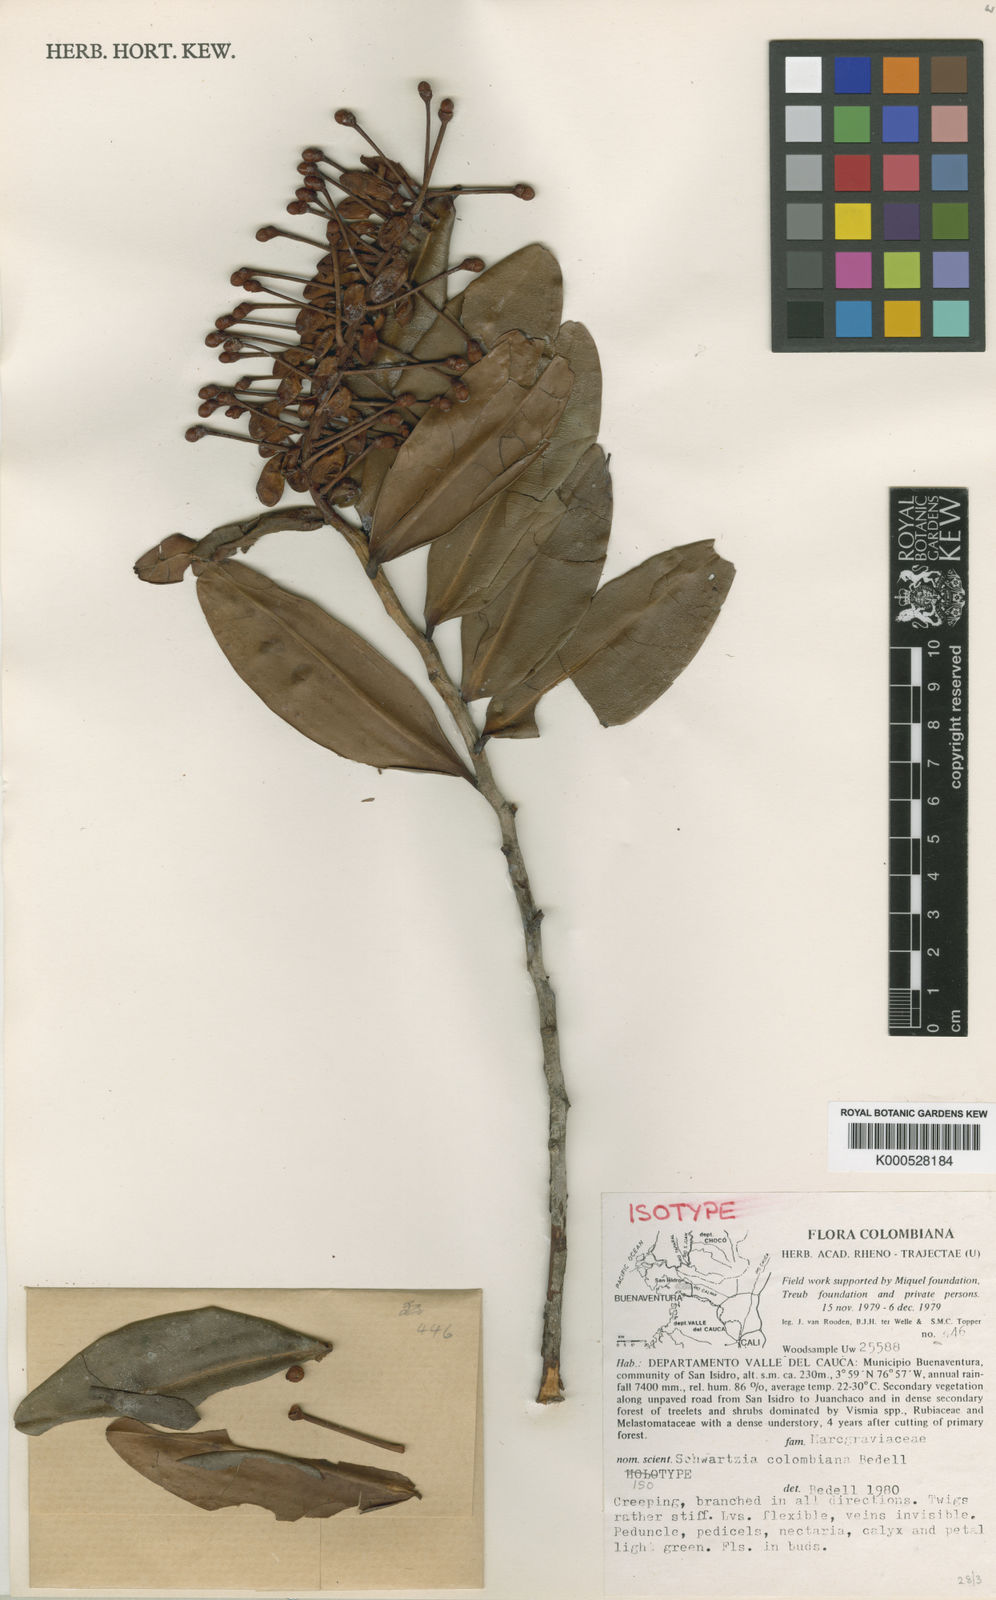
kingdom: Plantae
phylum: Tracheophyta
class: Magnoliopsida
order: Ericales
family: Marcgraviaceae
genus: Schwartzia
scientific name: Schwartzia
